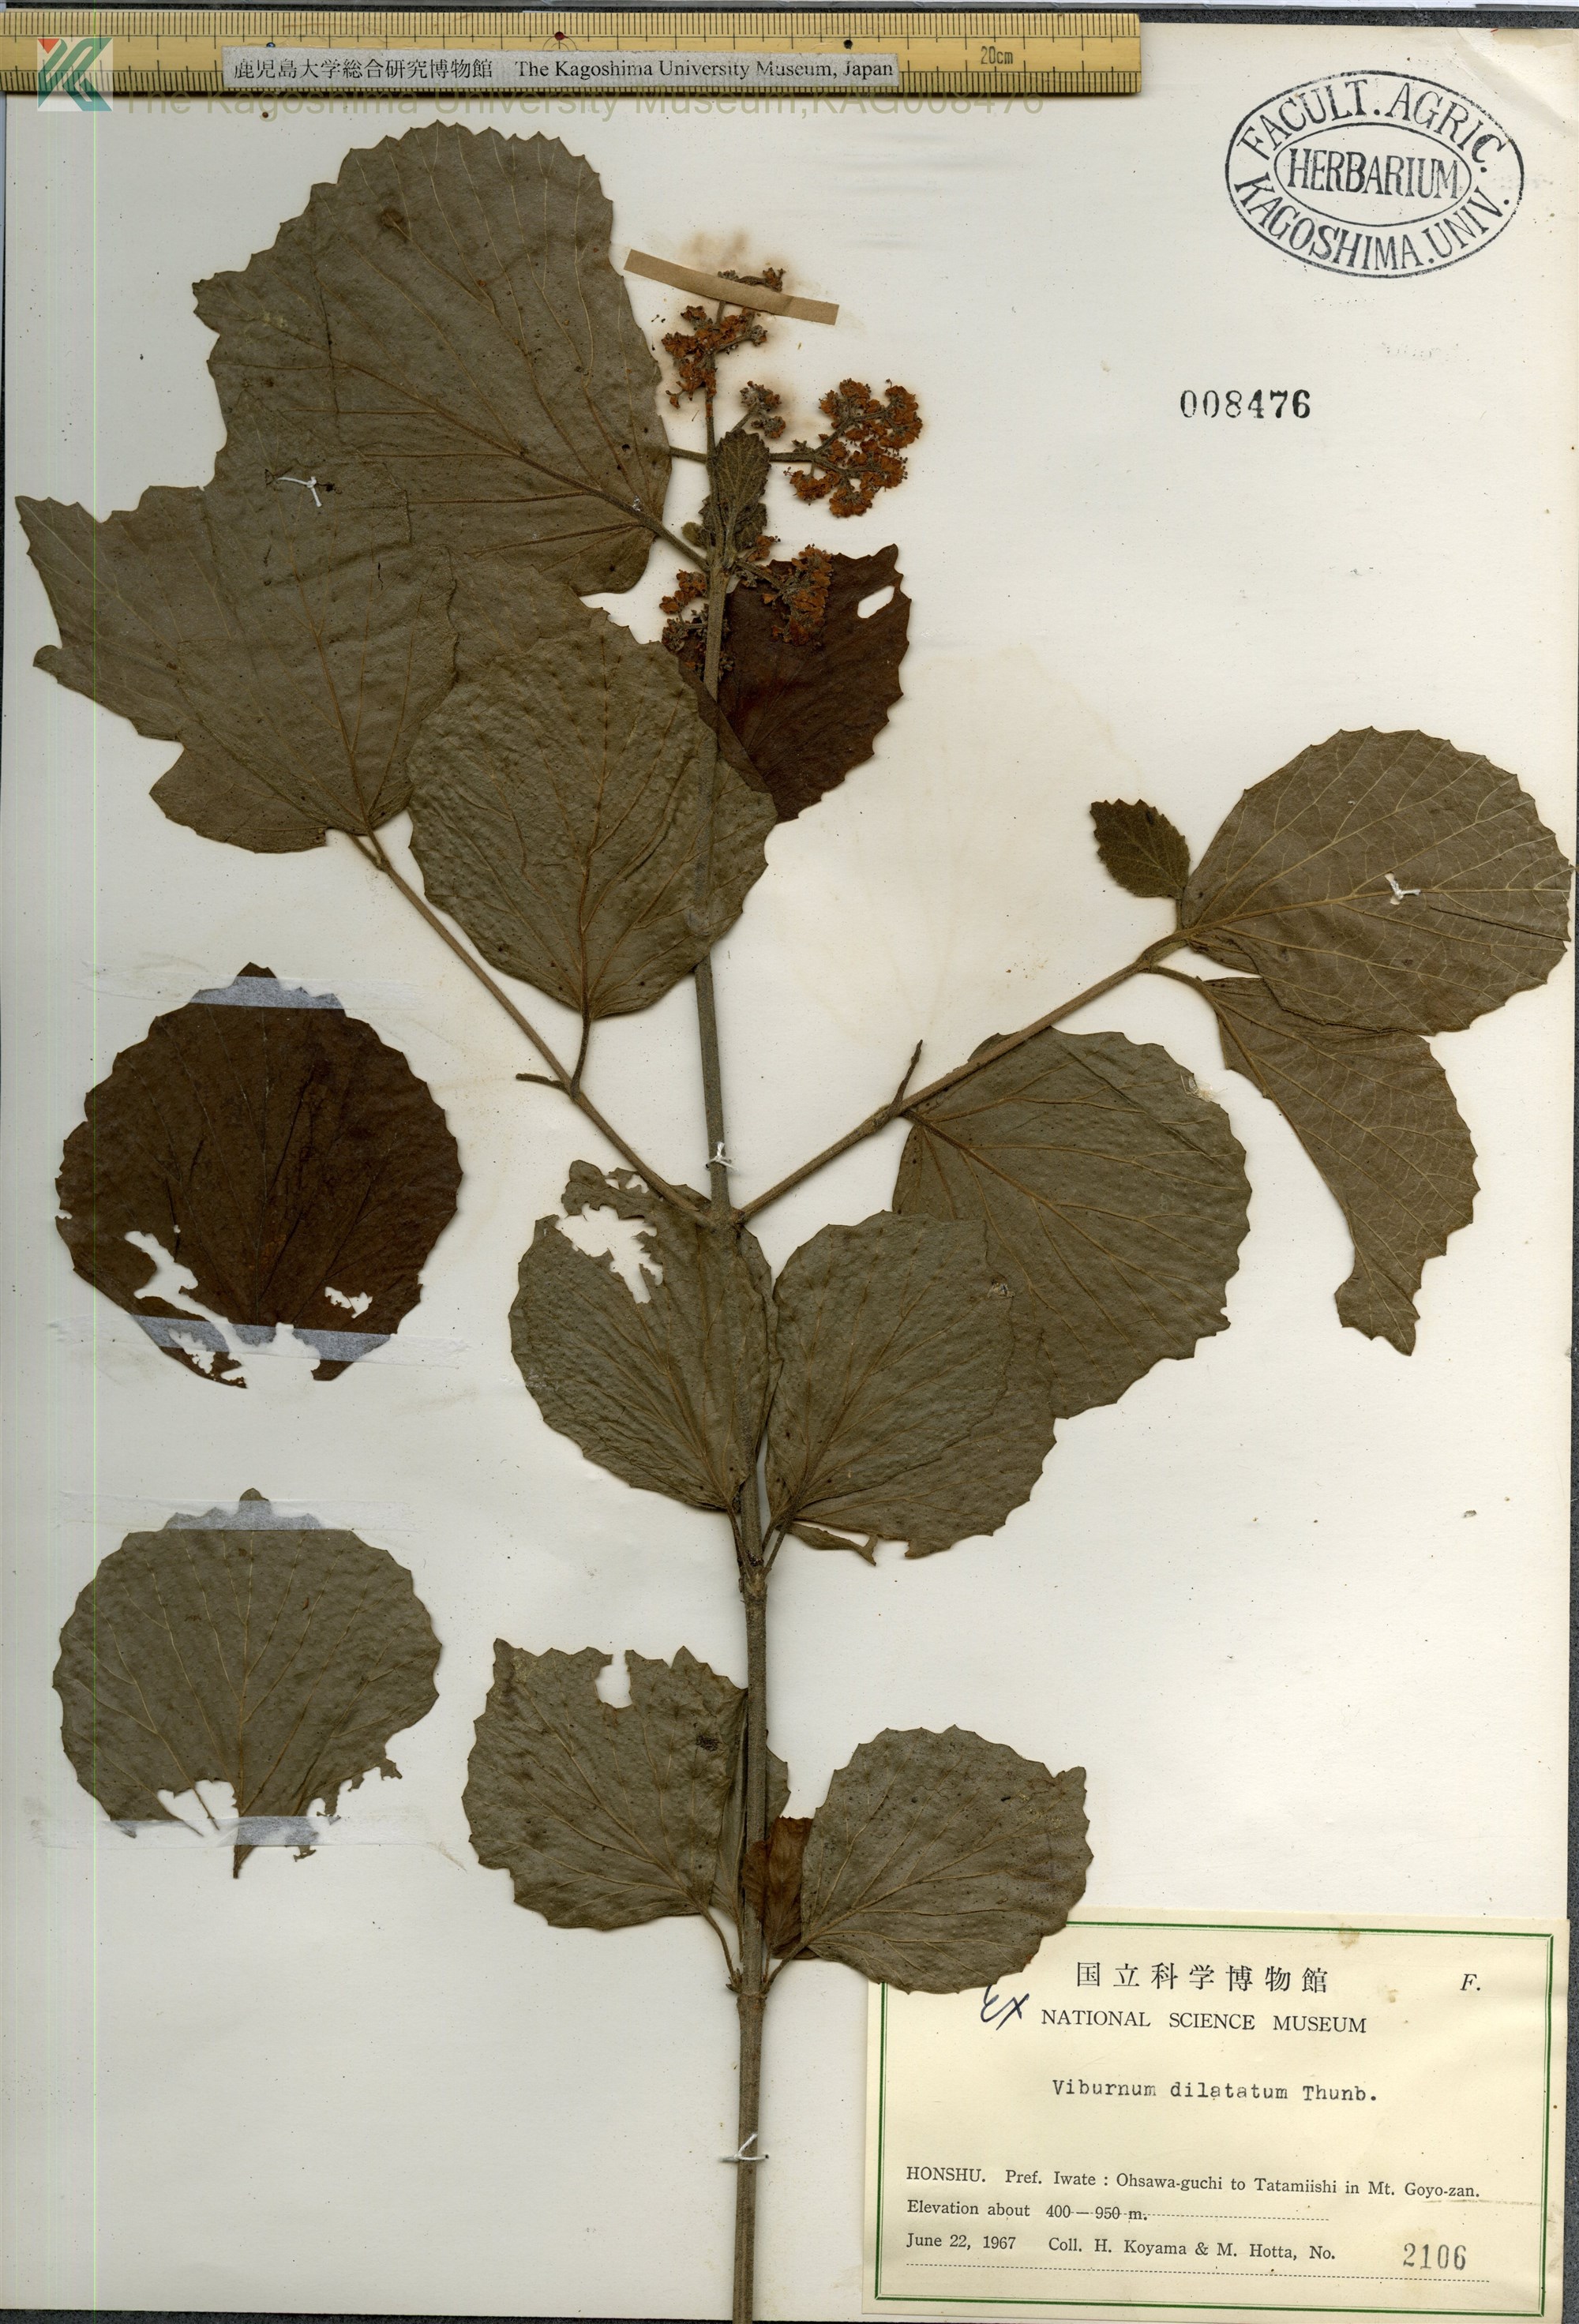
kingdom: Plantae
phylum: Tracheophyta
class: Magnoliopsida
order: Dipsacales
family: Viburnaceae
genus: Viburnum
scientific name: Viburnum dilatatum
